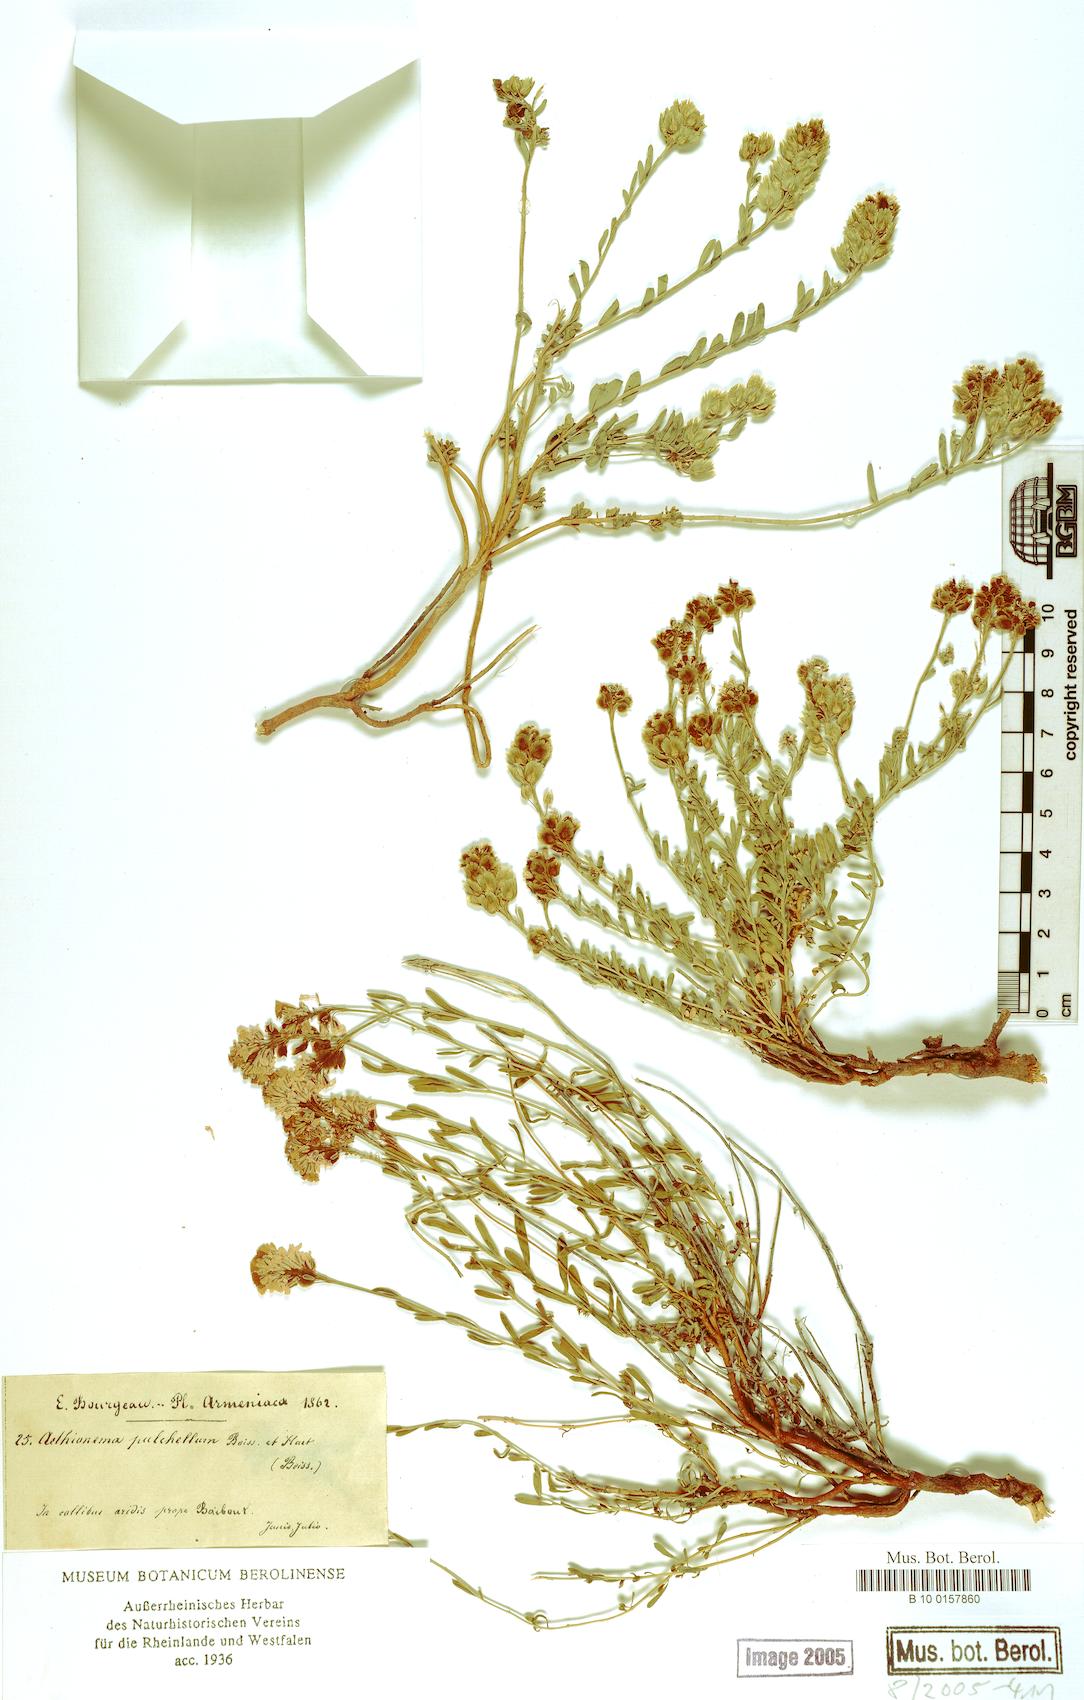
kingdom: Plantae
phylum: Tracheophyta
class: Magnoliopsida
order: Brassicales
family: Brassicaceae
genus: Aethionema
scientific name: Aethionema grandiflorum
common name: Persian stonecress
